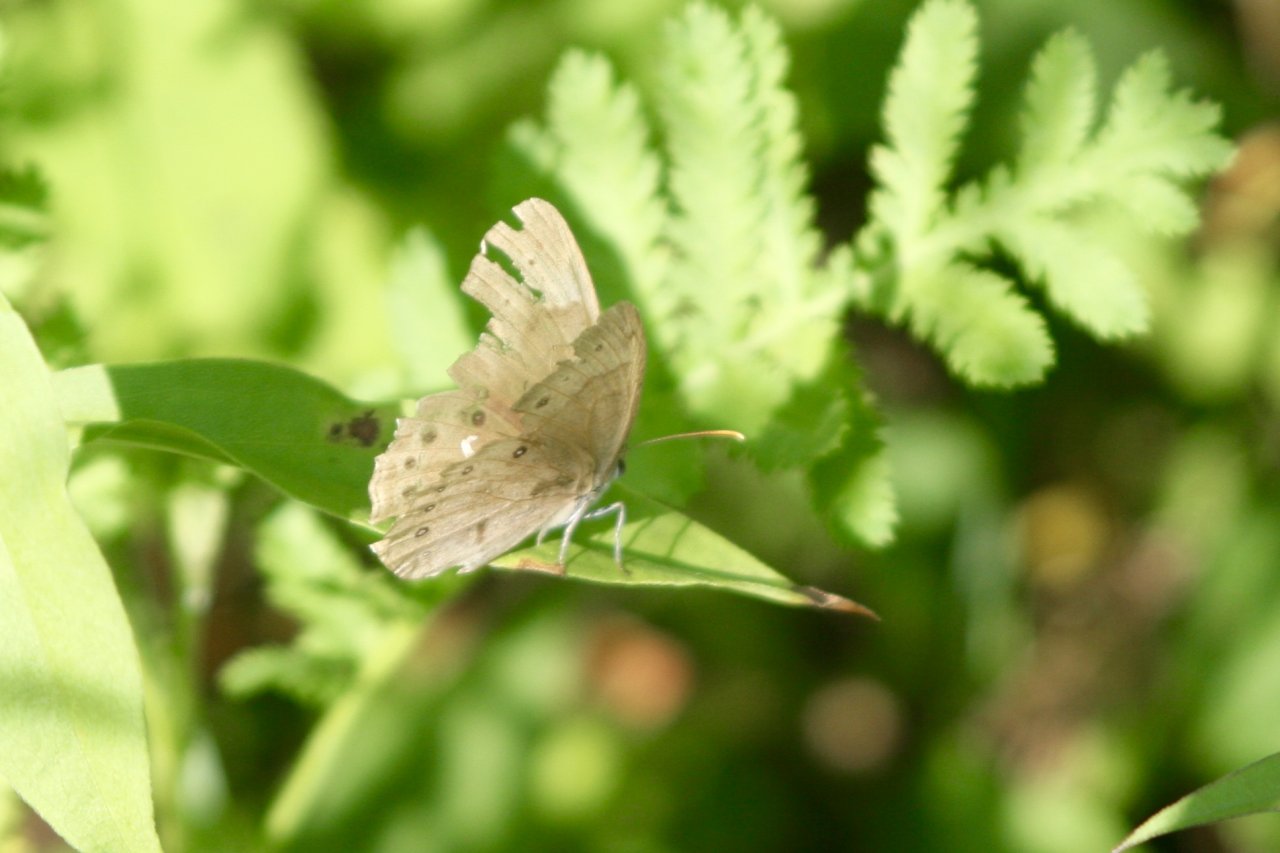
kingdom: Animalia
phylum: Arthropoda
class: Insecta
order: Lepidoptera
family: Nymphalidae
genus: Lethe
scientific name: Lethe eurydice
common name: Eyed Brown
